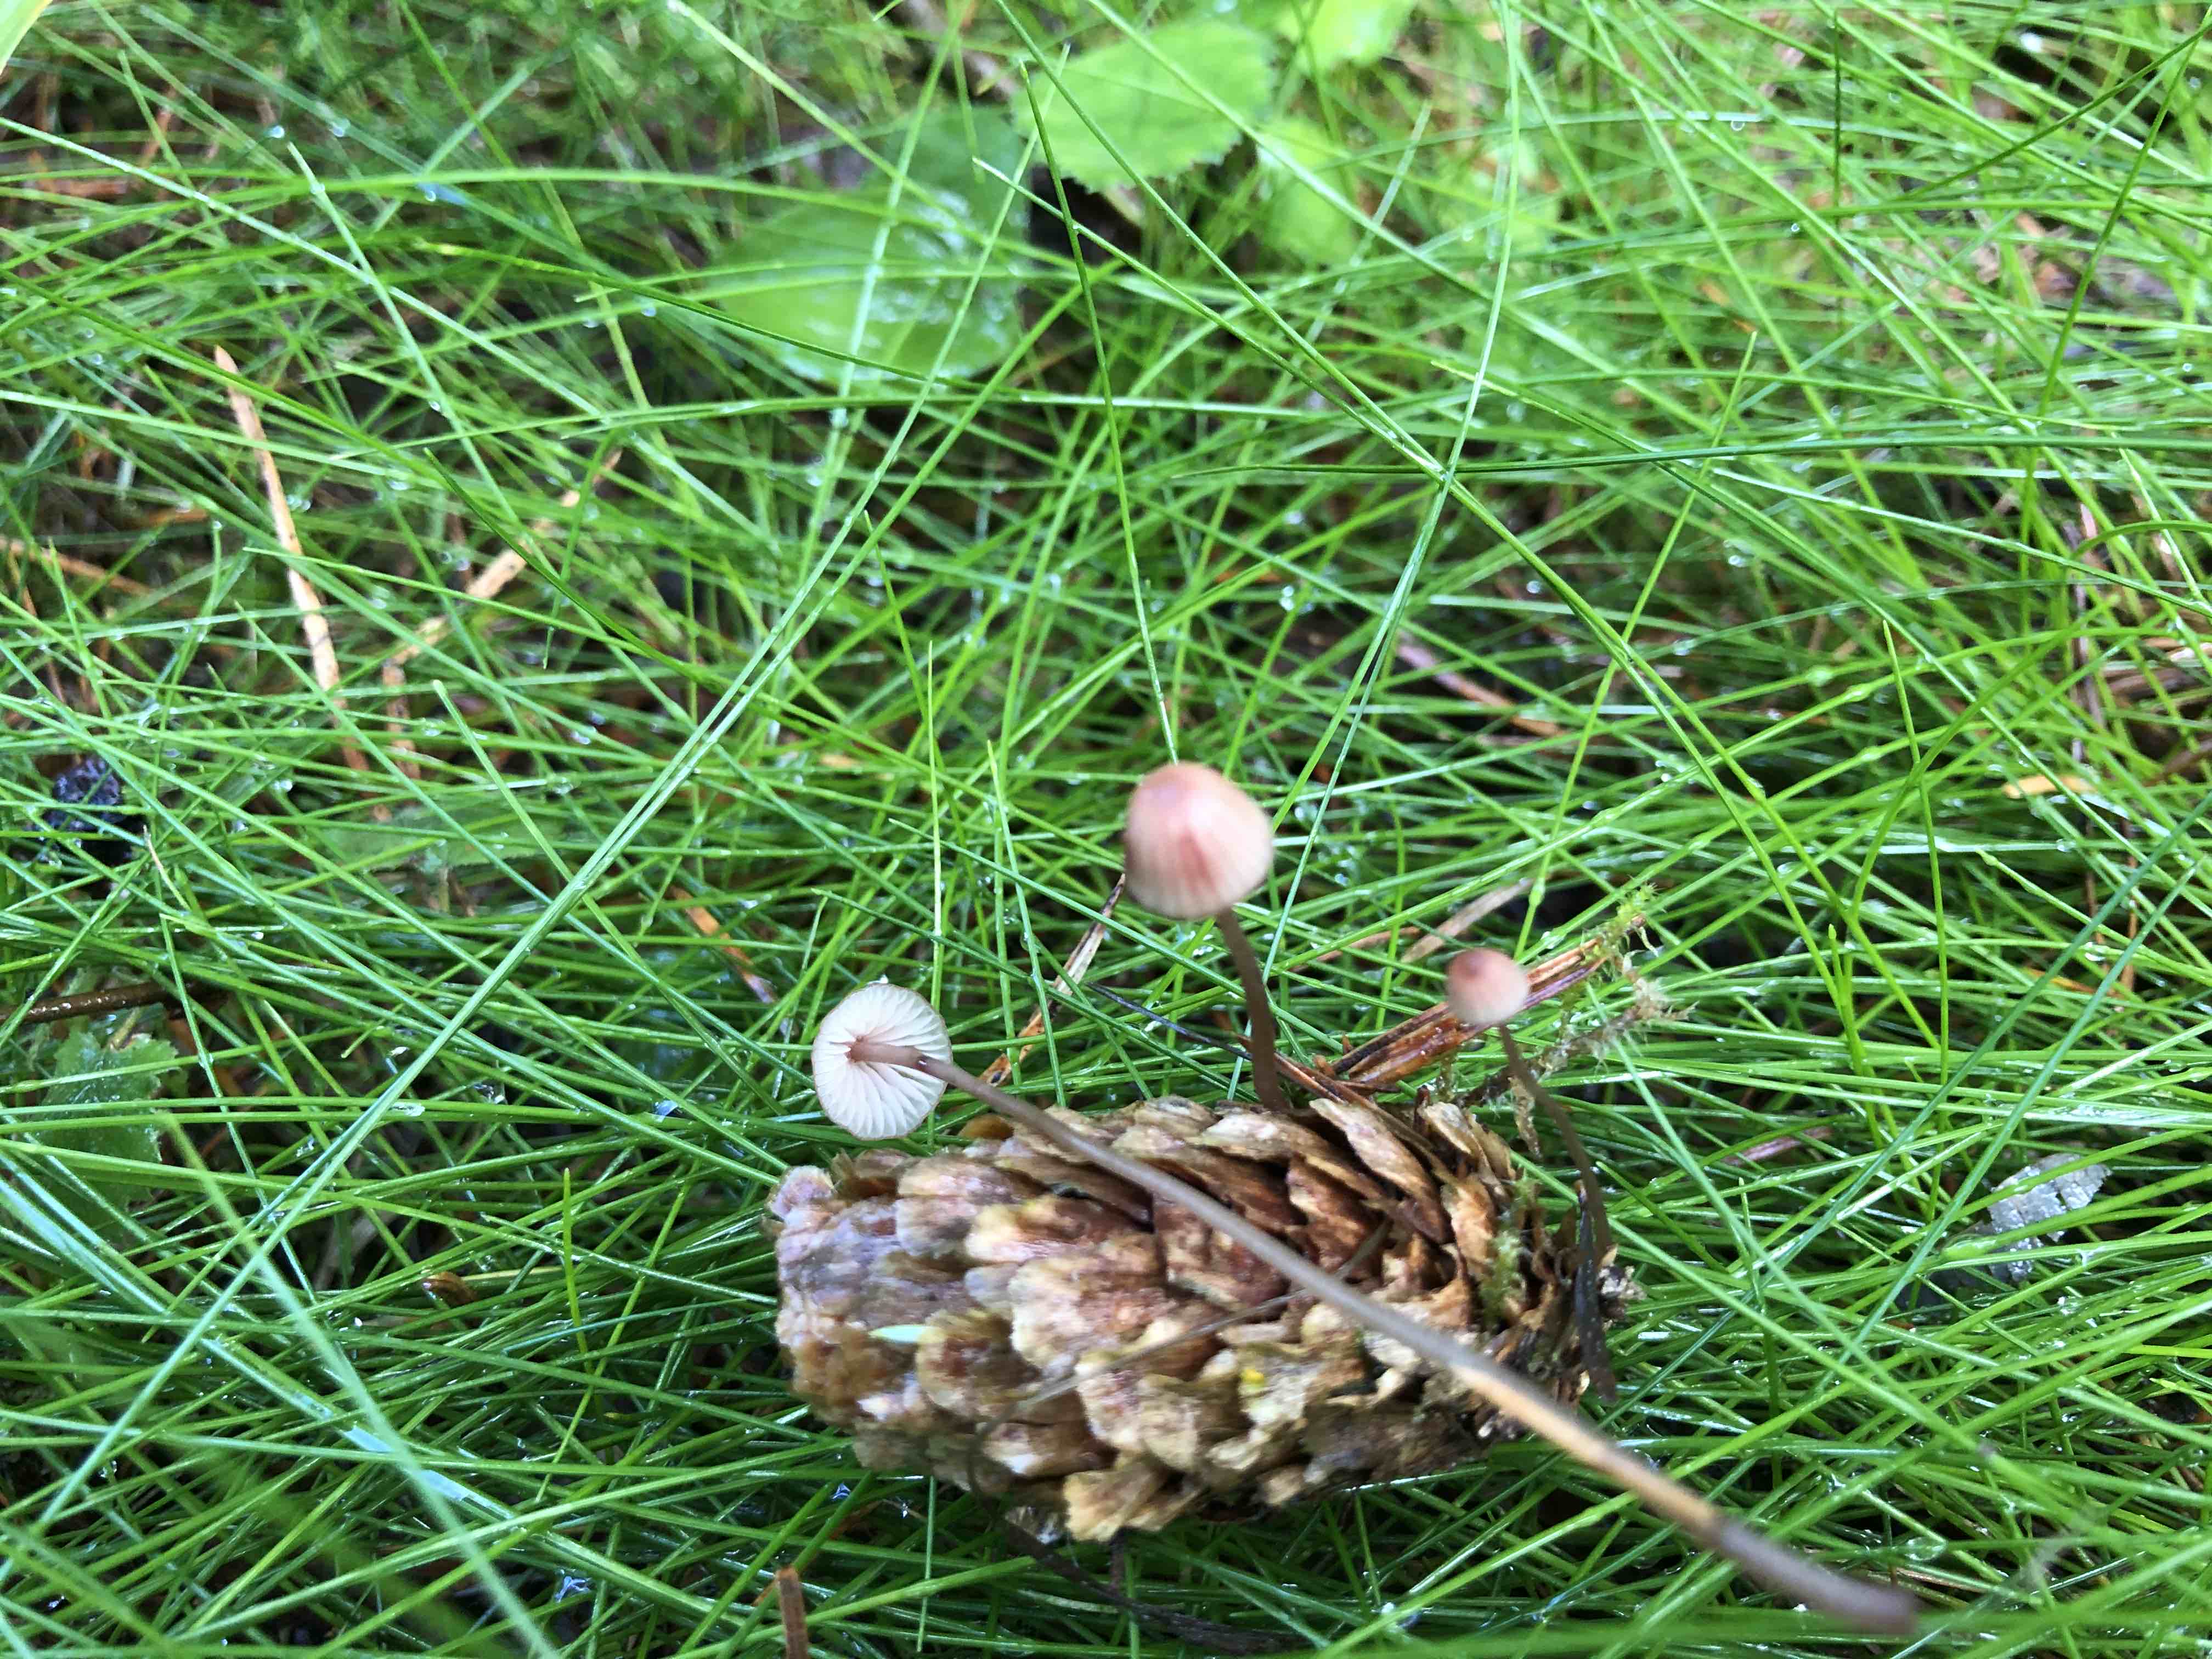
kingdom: Fungi
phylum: Basidiomycota
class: Agaricomycetes
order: Agaricales
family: Mycenaceae
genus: Mycena
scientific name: Mycena sanguinolenta
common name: rødmælket huesvamp
